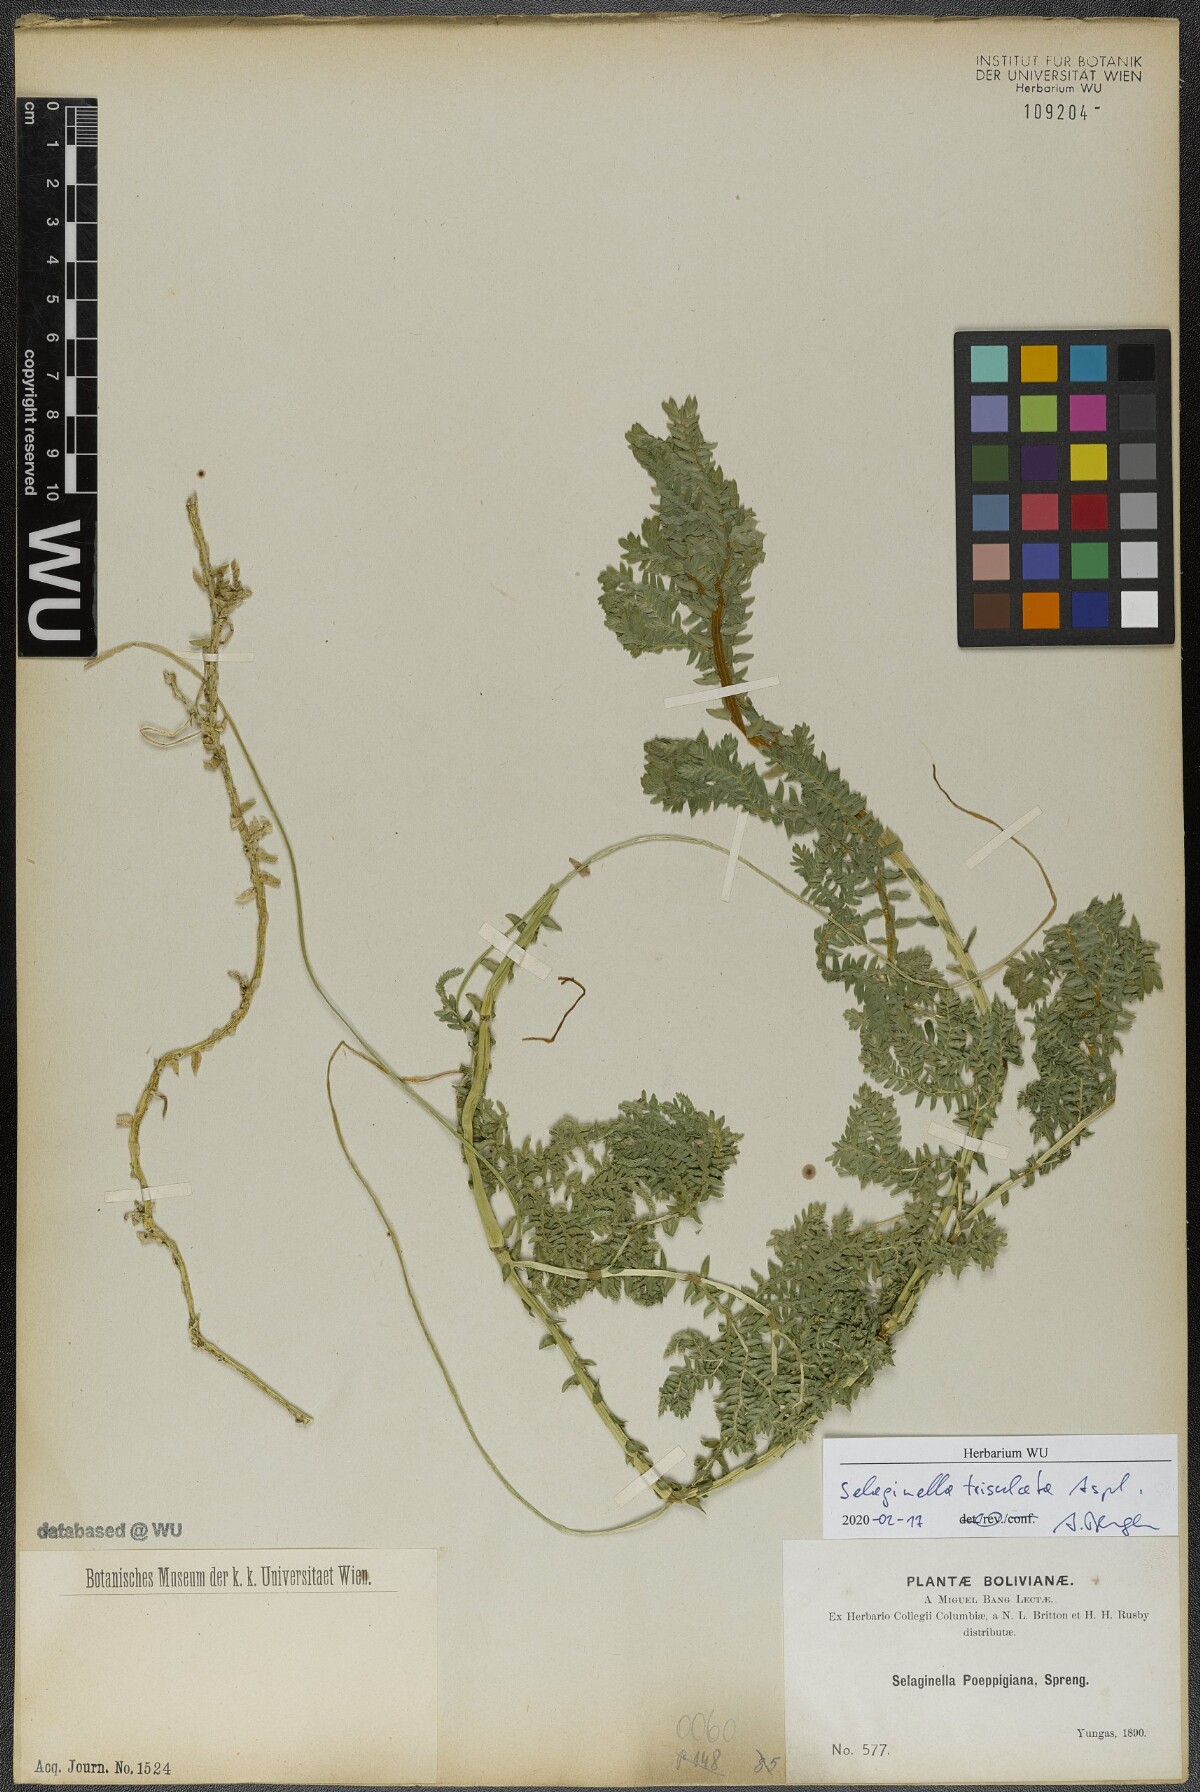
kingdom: Plantae
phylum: Tracheophyta
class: Lycopodiopsida
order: Selaginellales
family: Selaginellaceae
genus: Selaginella
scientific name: Selaginella trisulcata
